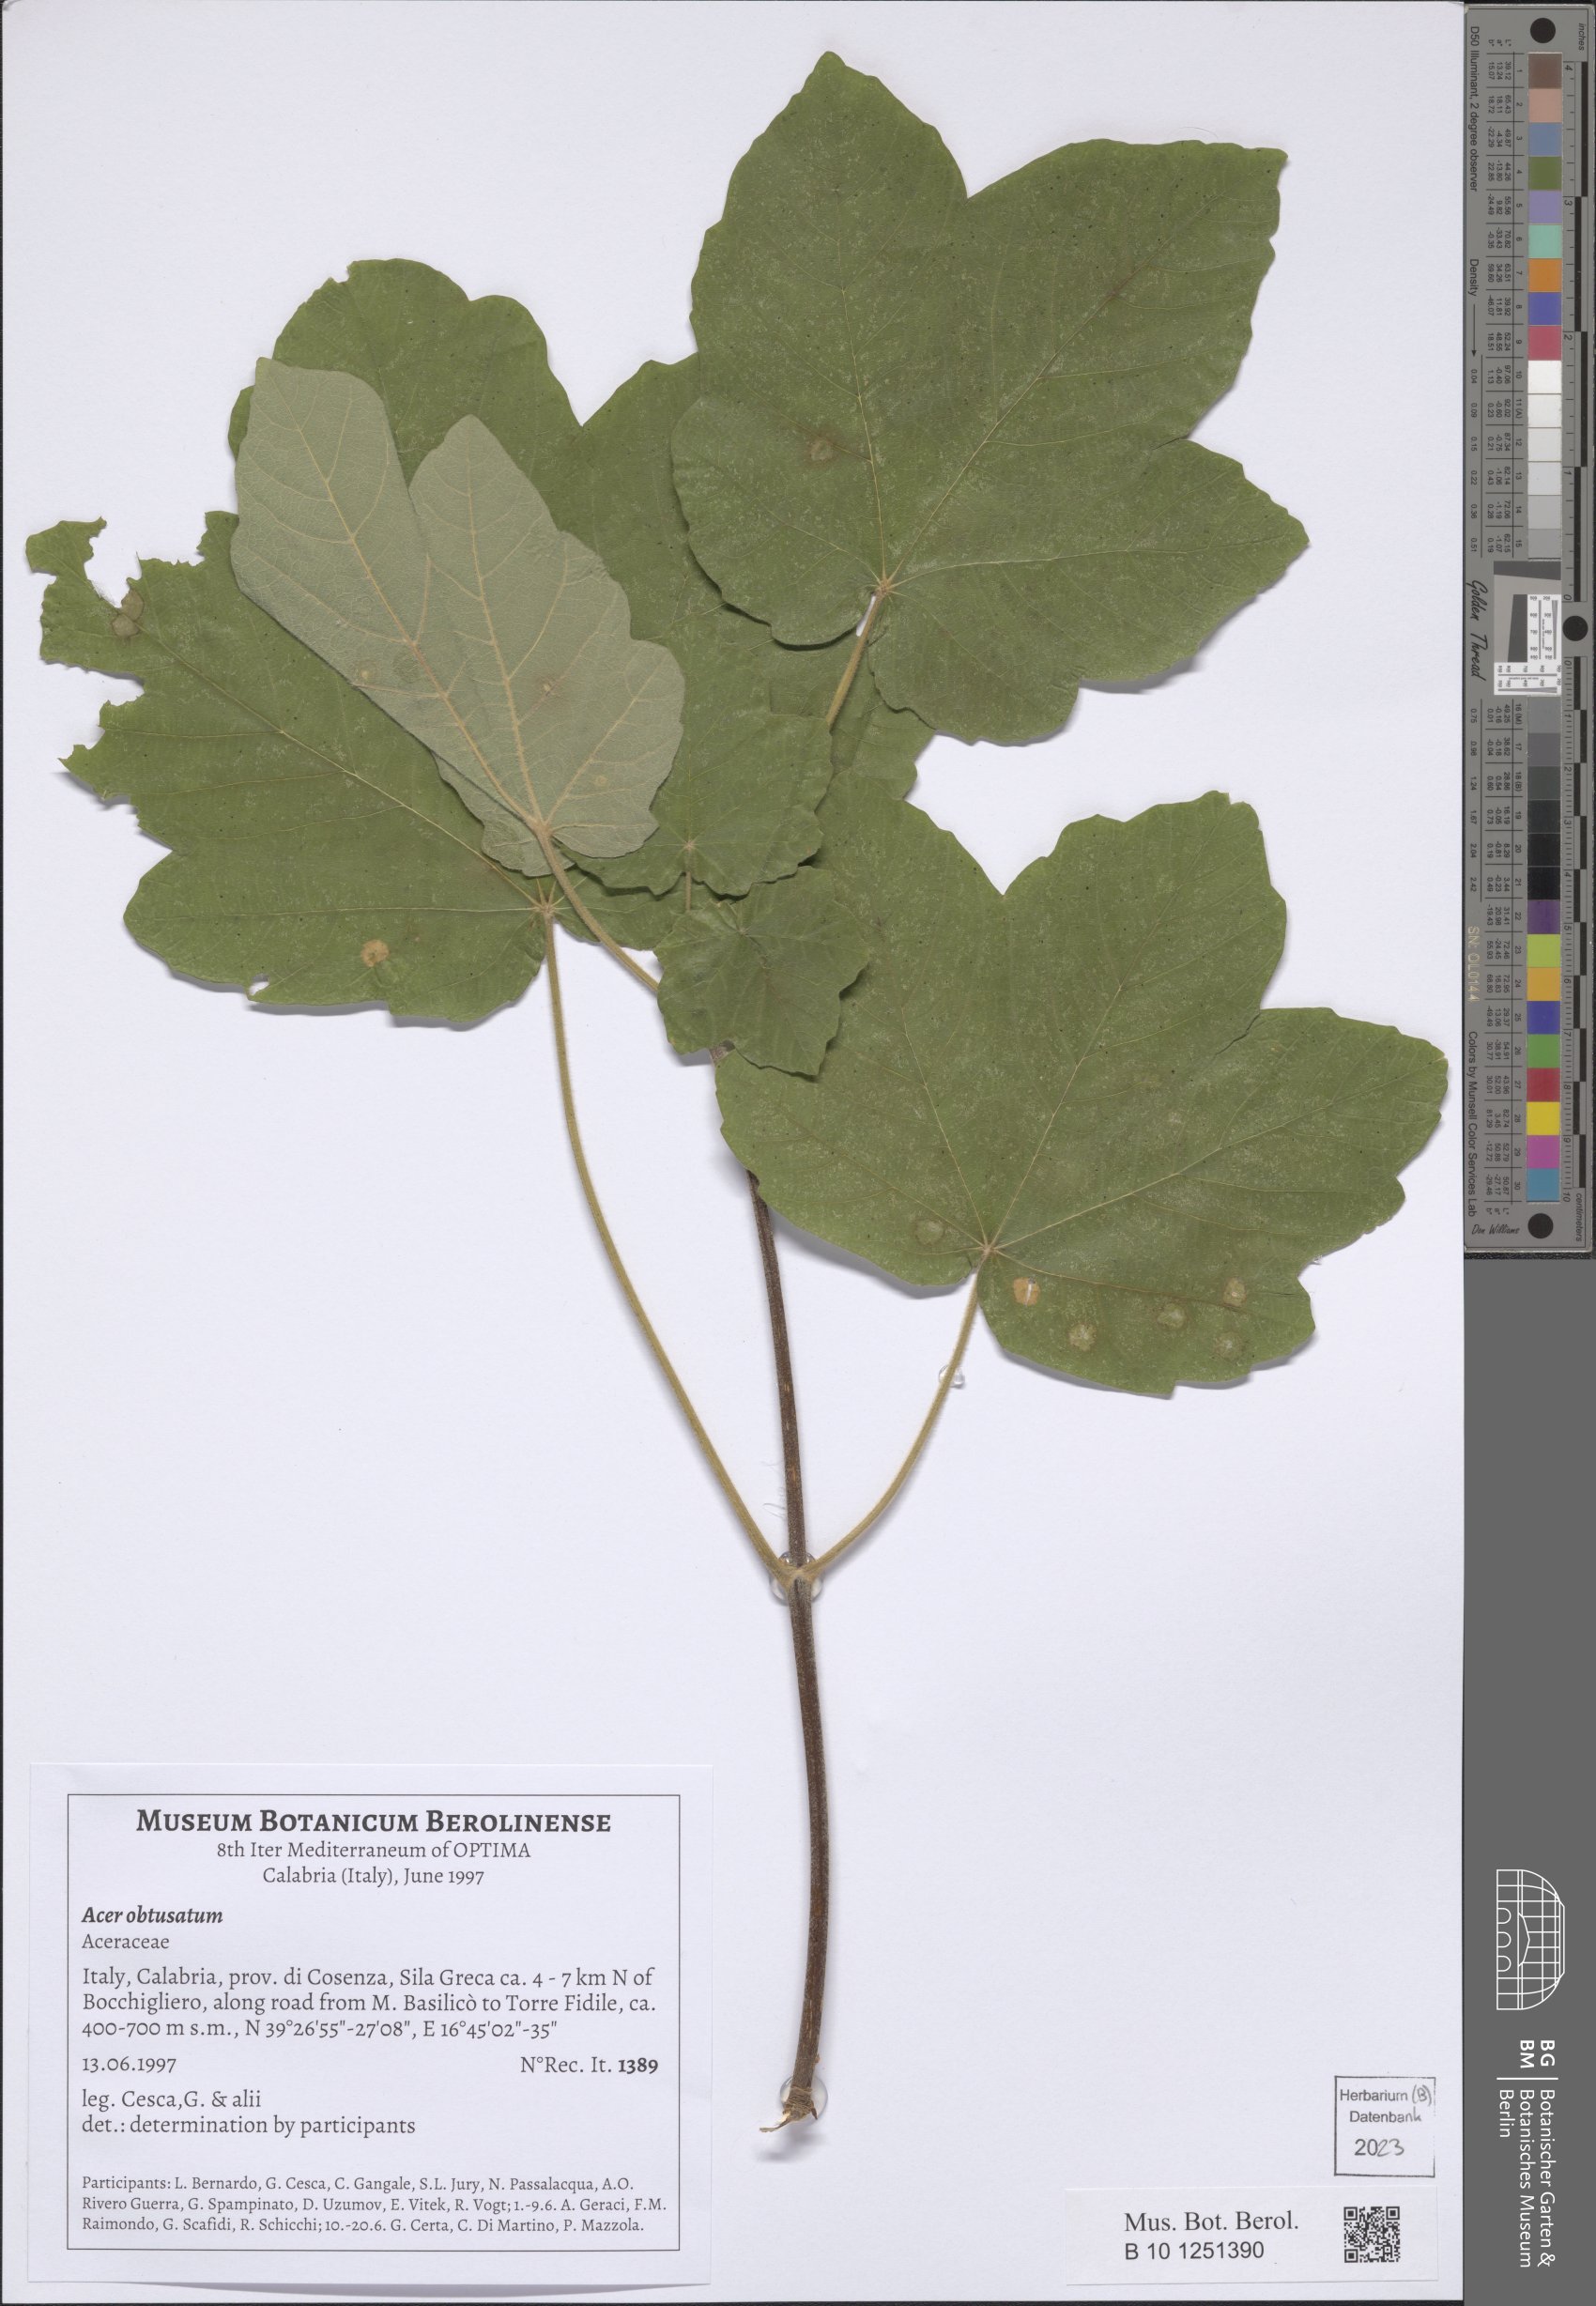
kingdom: Plantae
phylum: Tracheophyta
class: Magnoliopsida
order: Sapindales
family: Sapindaceae
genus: Acer
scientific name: Acer obtusatum
